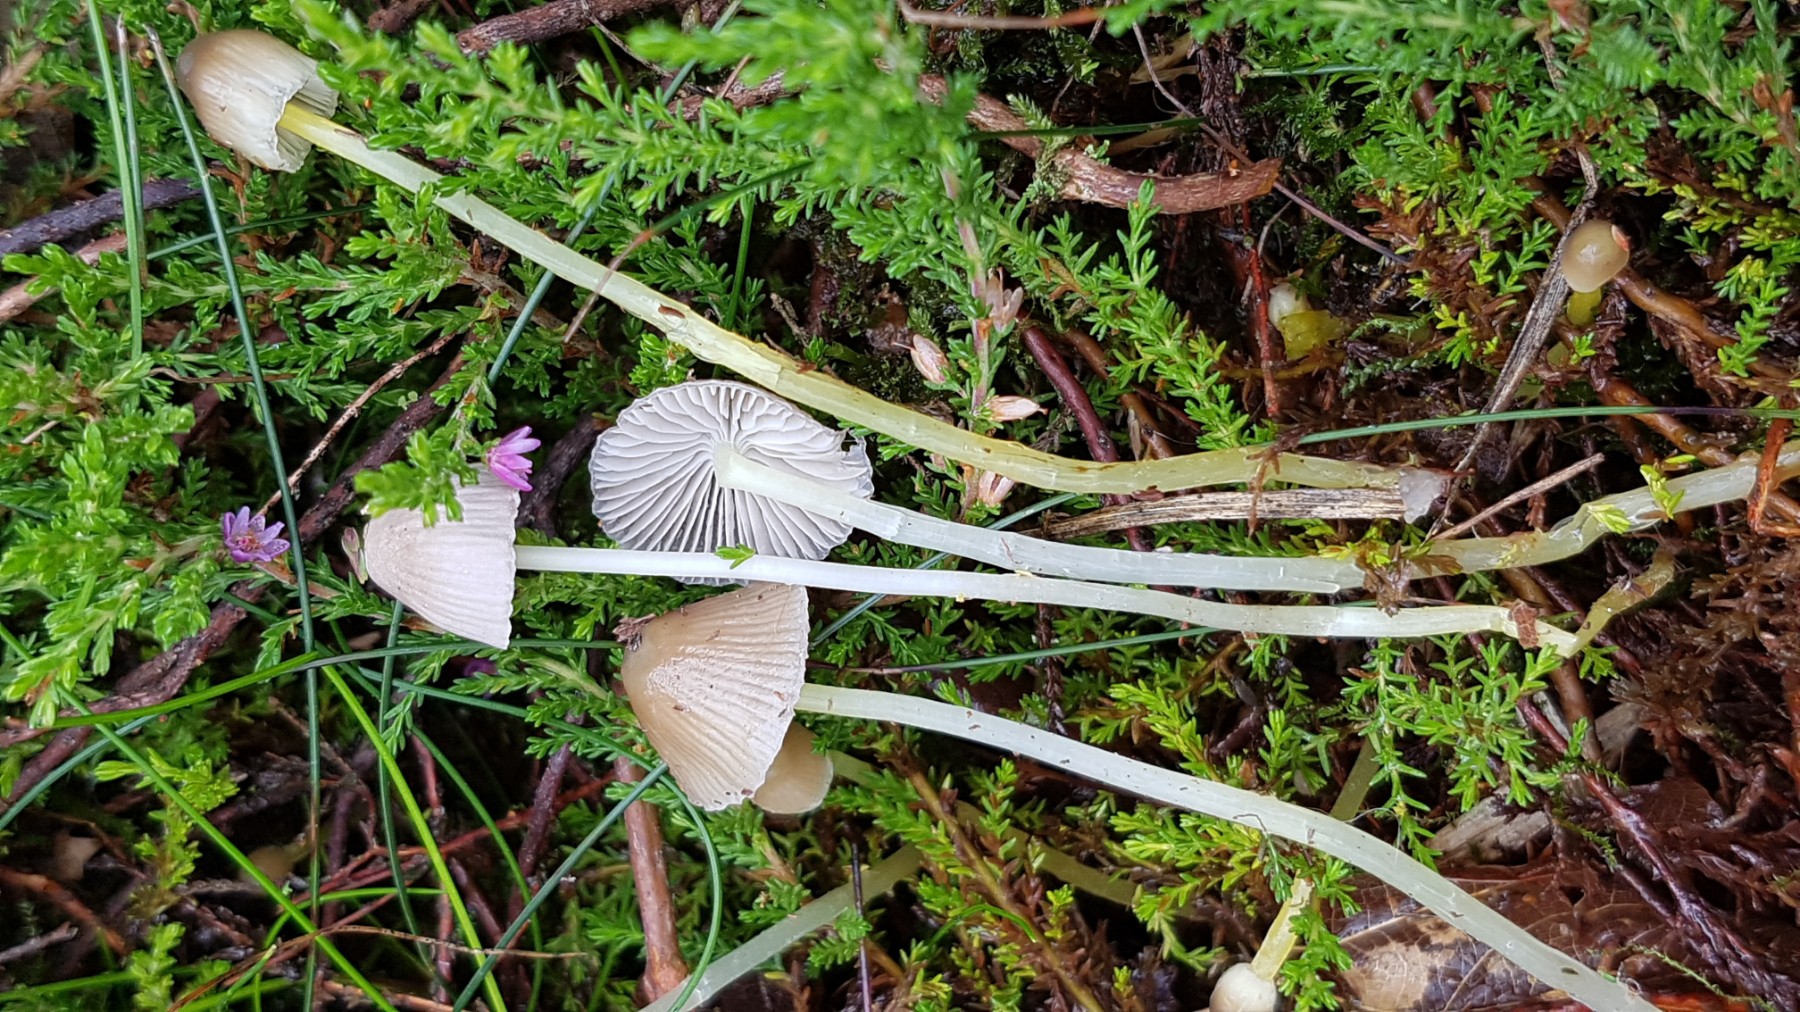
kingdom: Fungi
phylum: Basidiomycota
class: Agaricomycetes
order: Agaricales
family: Mycenaceae
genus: Mycena
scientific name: Mycena epipterygia
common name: gulstokket huesvamp
